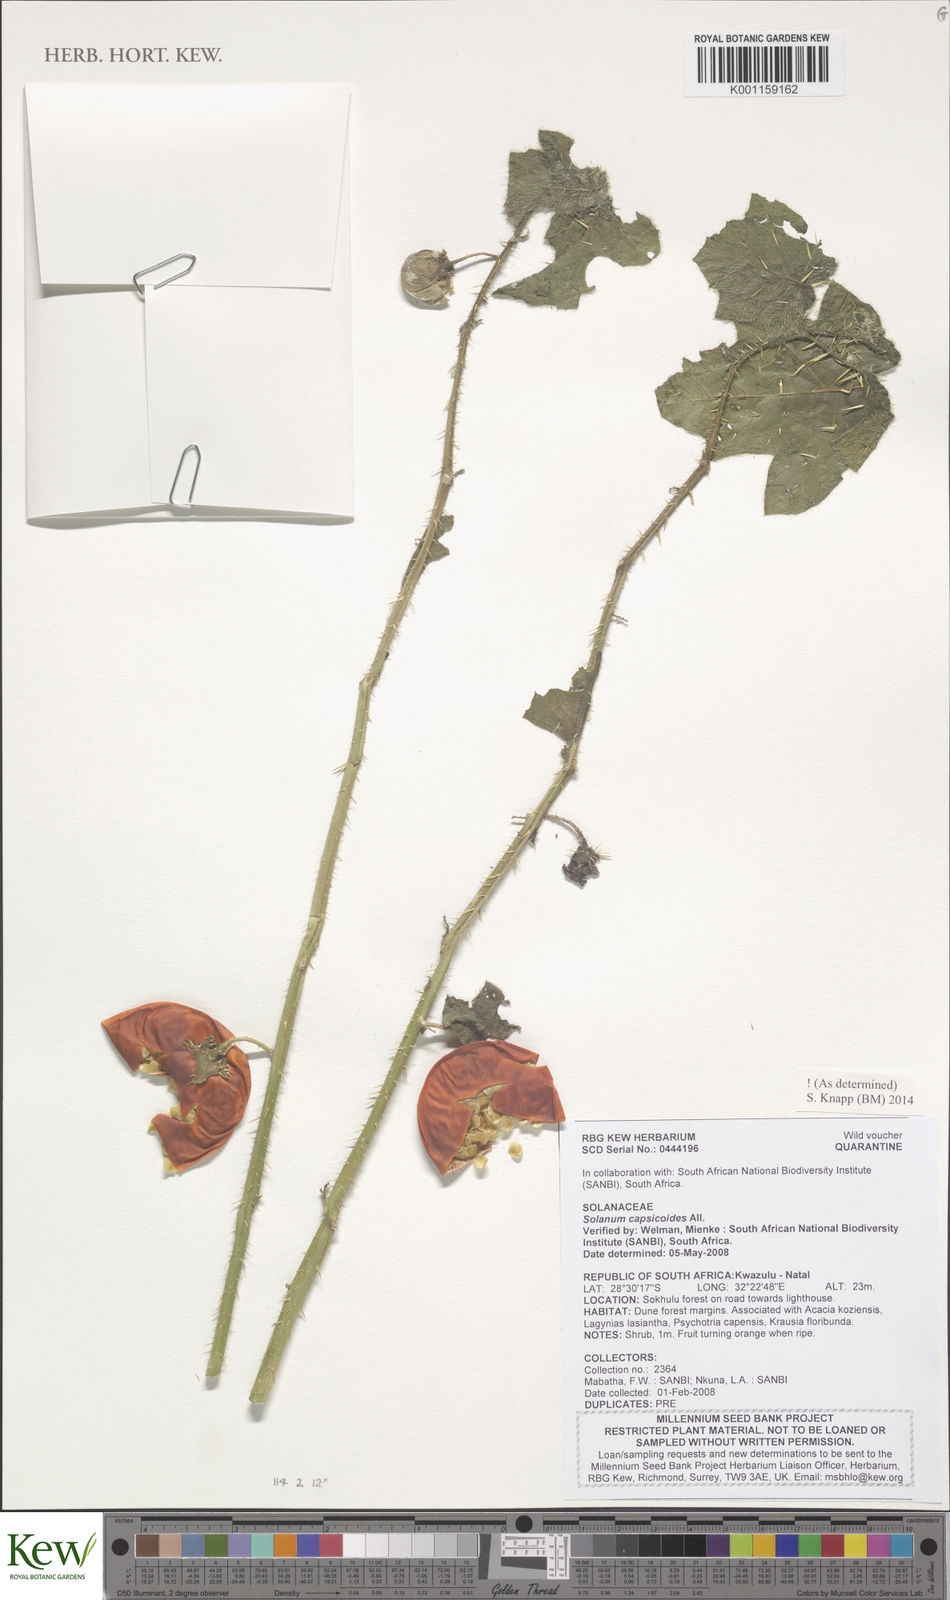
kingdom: Plantae
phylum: Tracheophyta
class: Magnoliopsida
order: Solanales
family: Solanaceae
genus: Solanum
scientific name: Solanum capsicoides
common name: Cockroach berry
